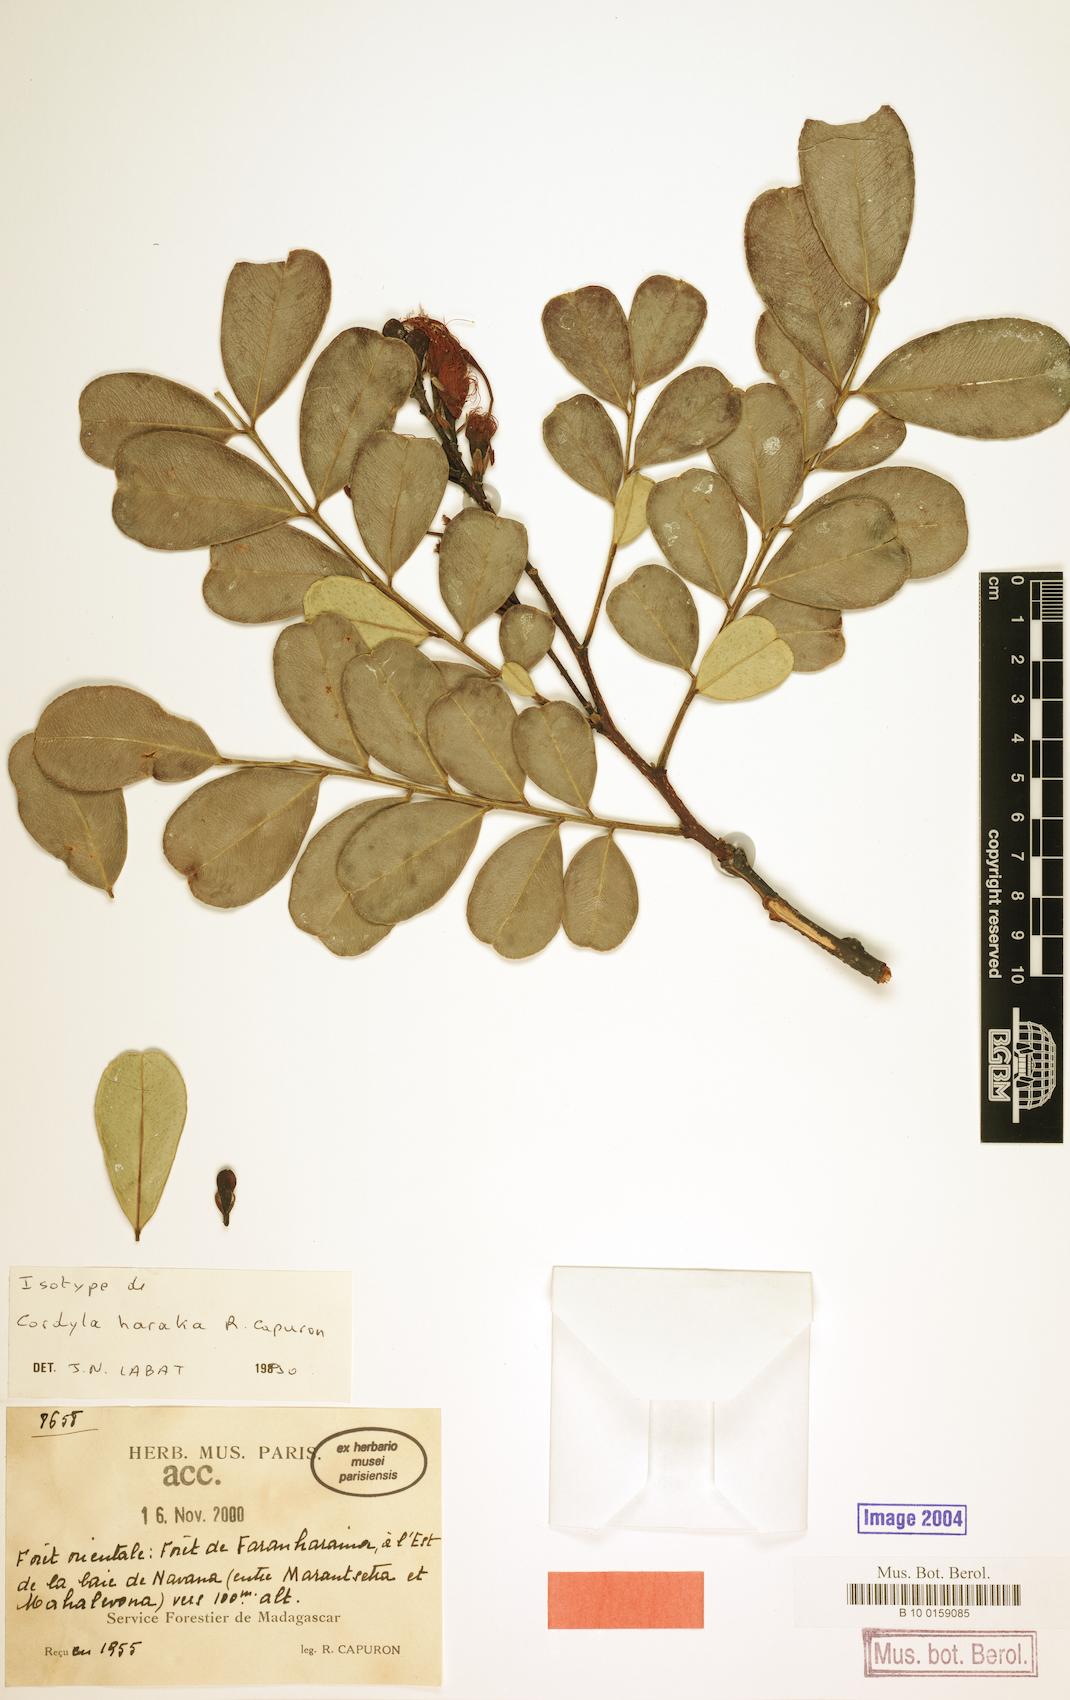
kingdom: Plantae
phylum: Tracheophyta
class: Magnoliopsida
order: Fabales
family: Fabaceae
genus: Cordyla
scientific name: Cordyla haraka
